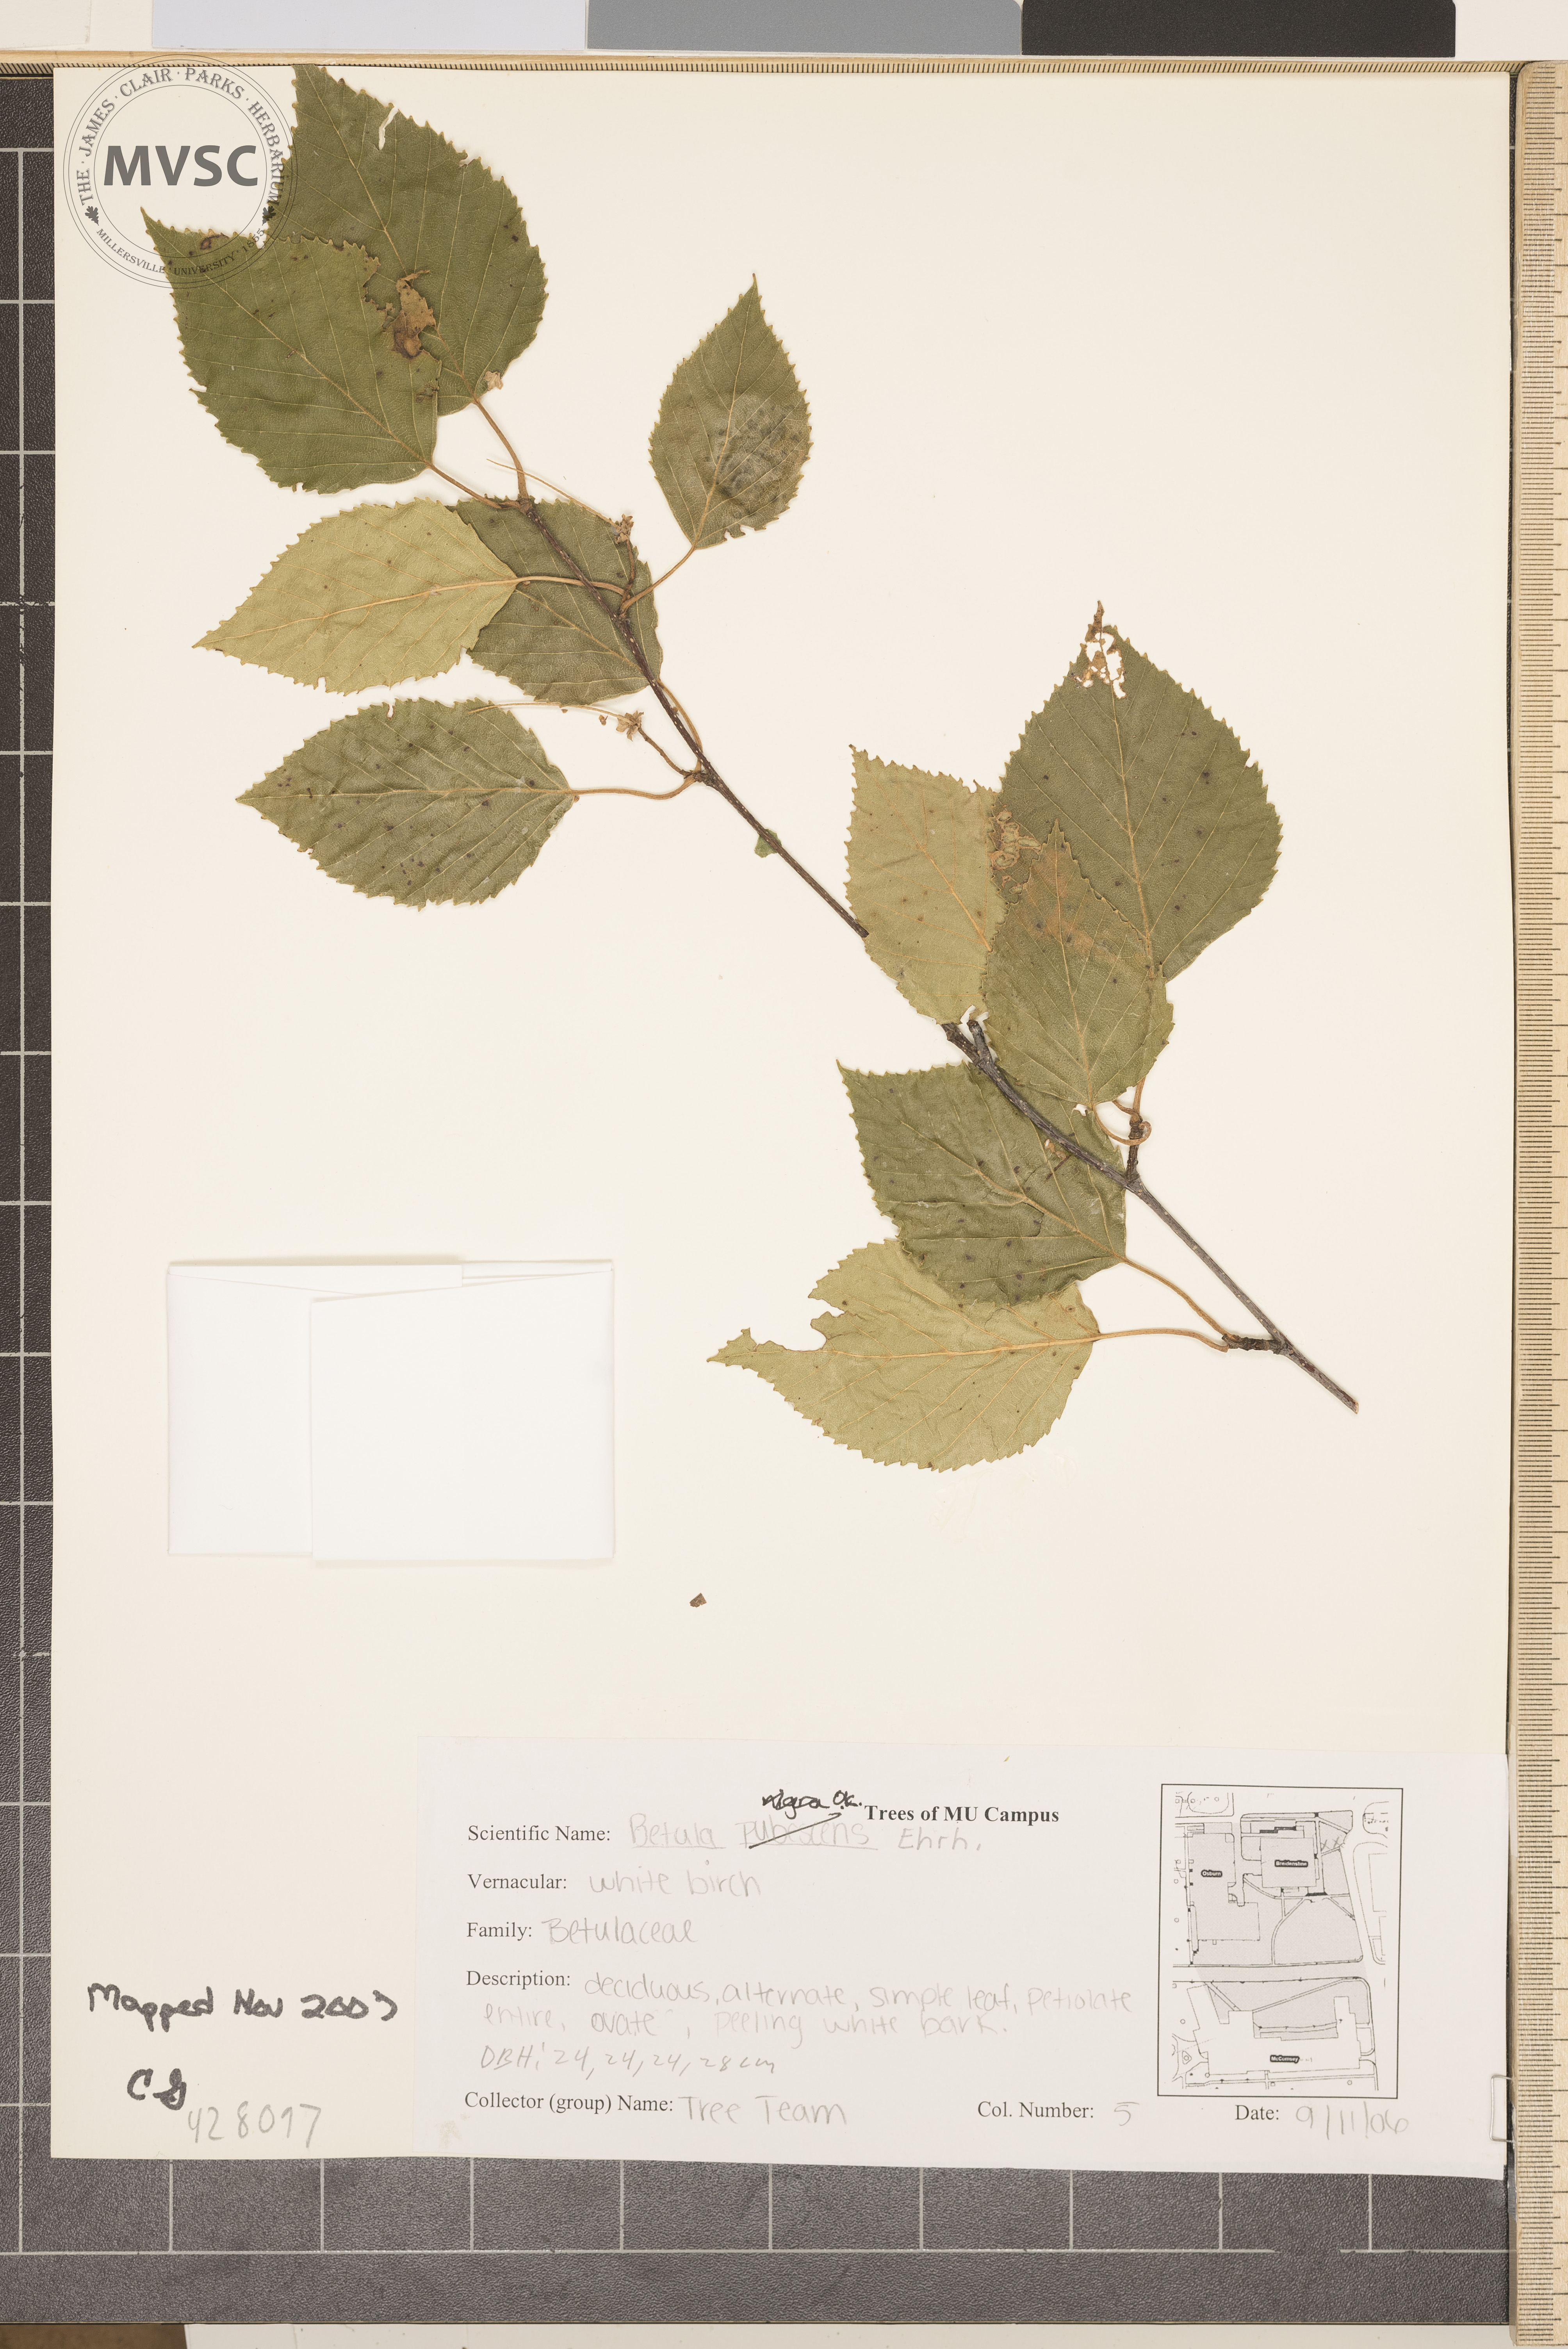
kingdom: Plantae
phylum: Tracheophyta
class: Magnoliopsida
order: Fagales
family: Betulaceae
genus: Betula
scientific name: Betula pubescens
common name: White Birch
